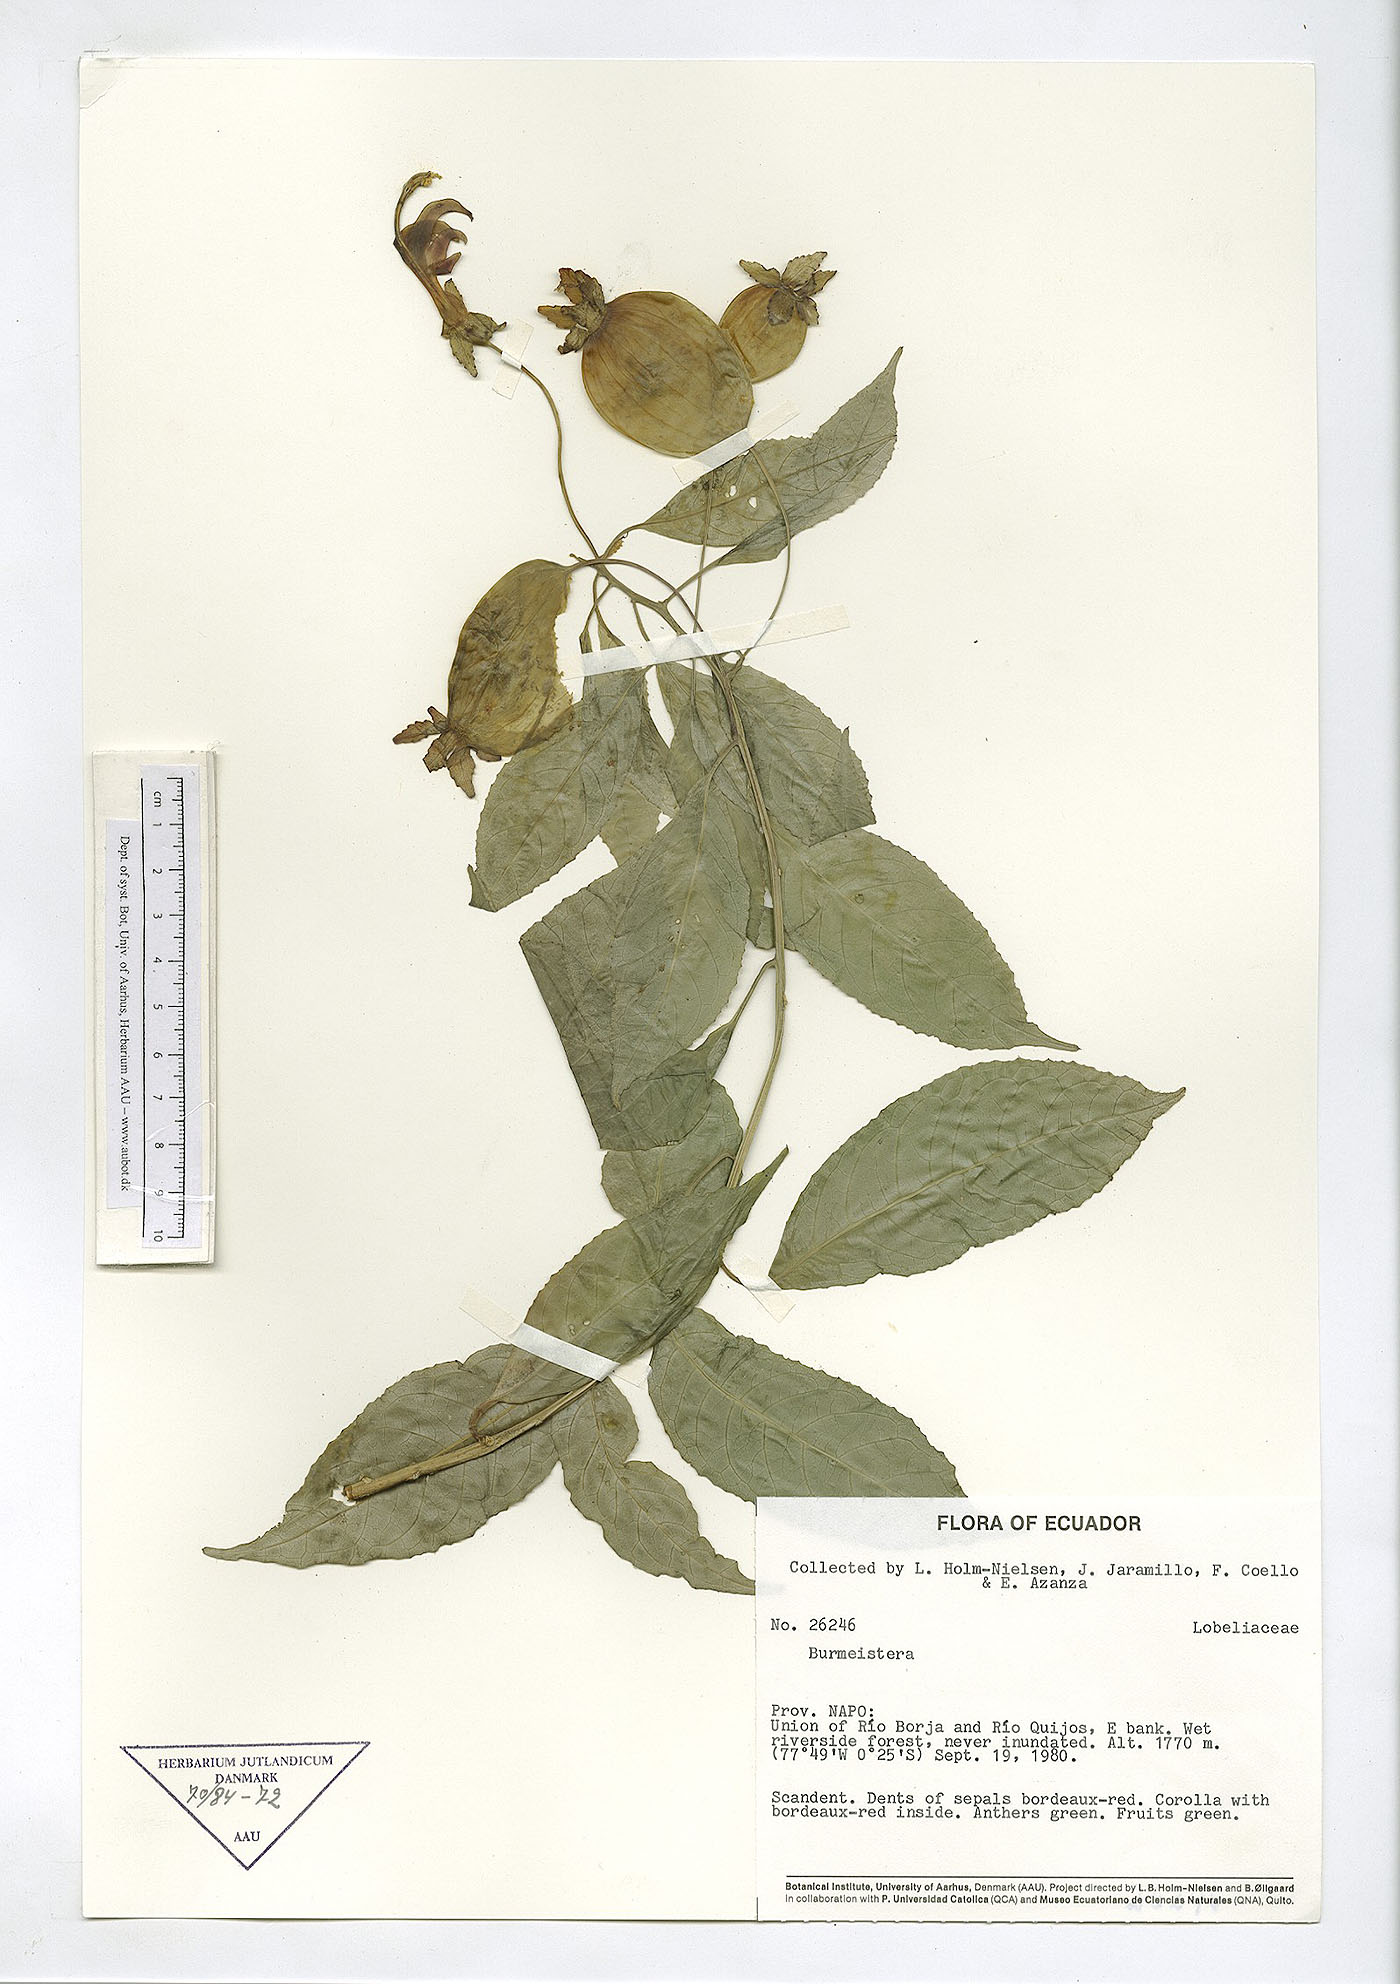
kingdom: Plantae
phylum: Tracheophyta
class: Magnoliopsida
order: Asterales
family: Campanulaceae
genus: Burmeistera
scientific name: Burmeistera
